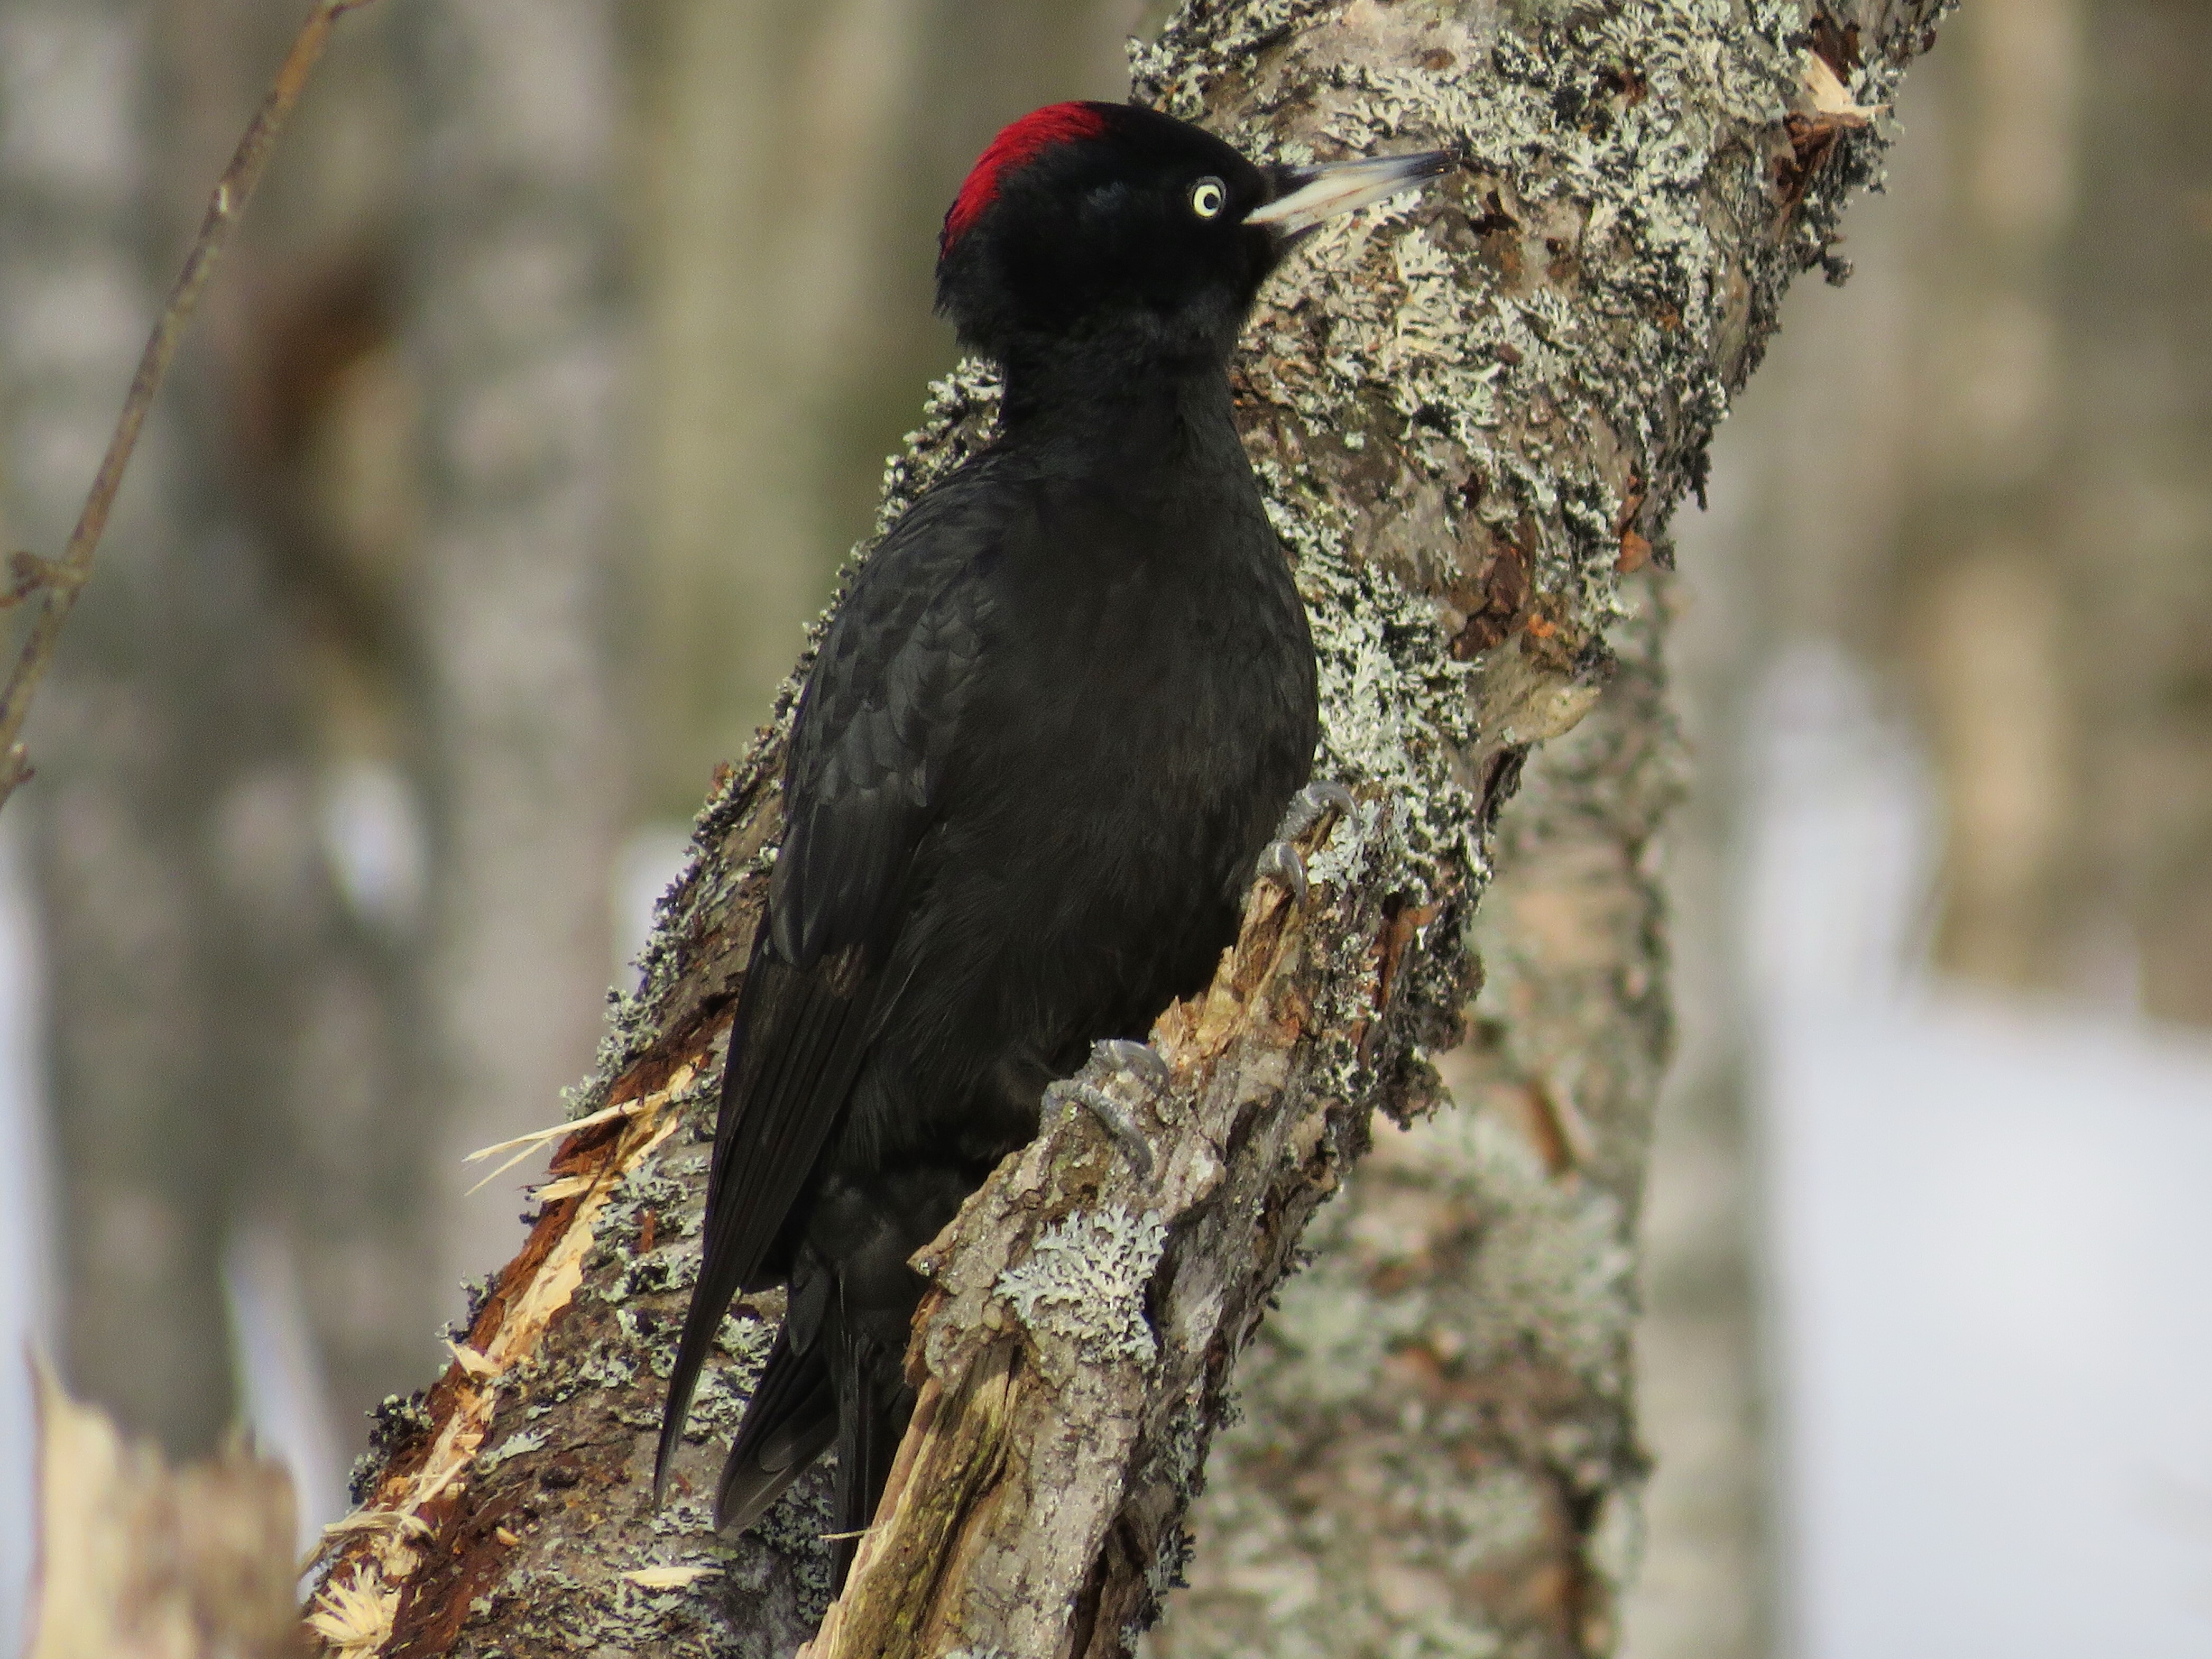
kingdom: Animalia
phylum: Chordata
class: Aves
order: Piciformes
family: Picidae
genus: Dryocopus
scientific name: Dryocopus martius
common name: Black woodpecker
